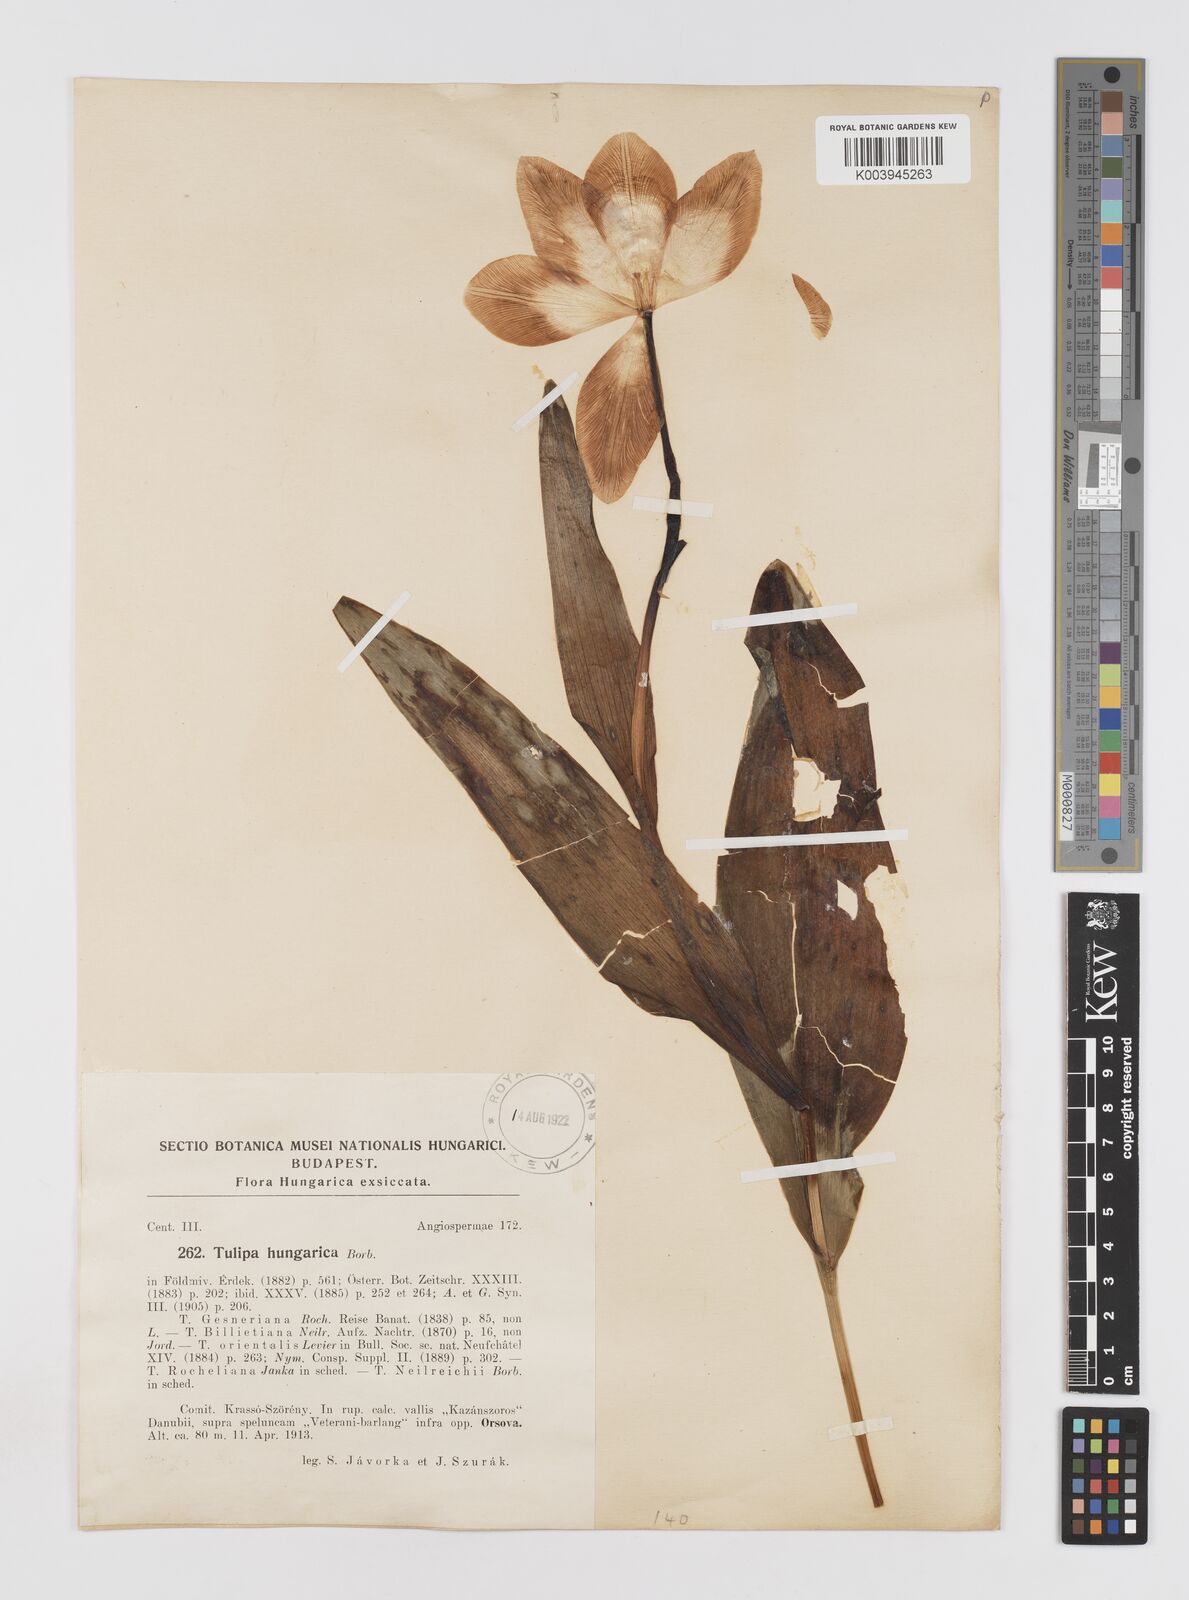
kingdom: Plantae
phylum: Tracheophyta
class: Liliopsida
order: Liliales
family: Liliaceae
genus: Tulipa
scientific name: Tulipa hungarica
